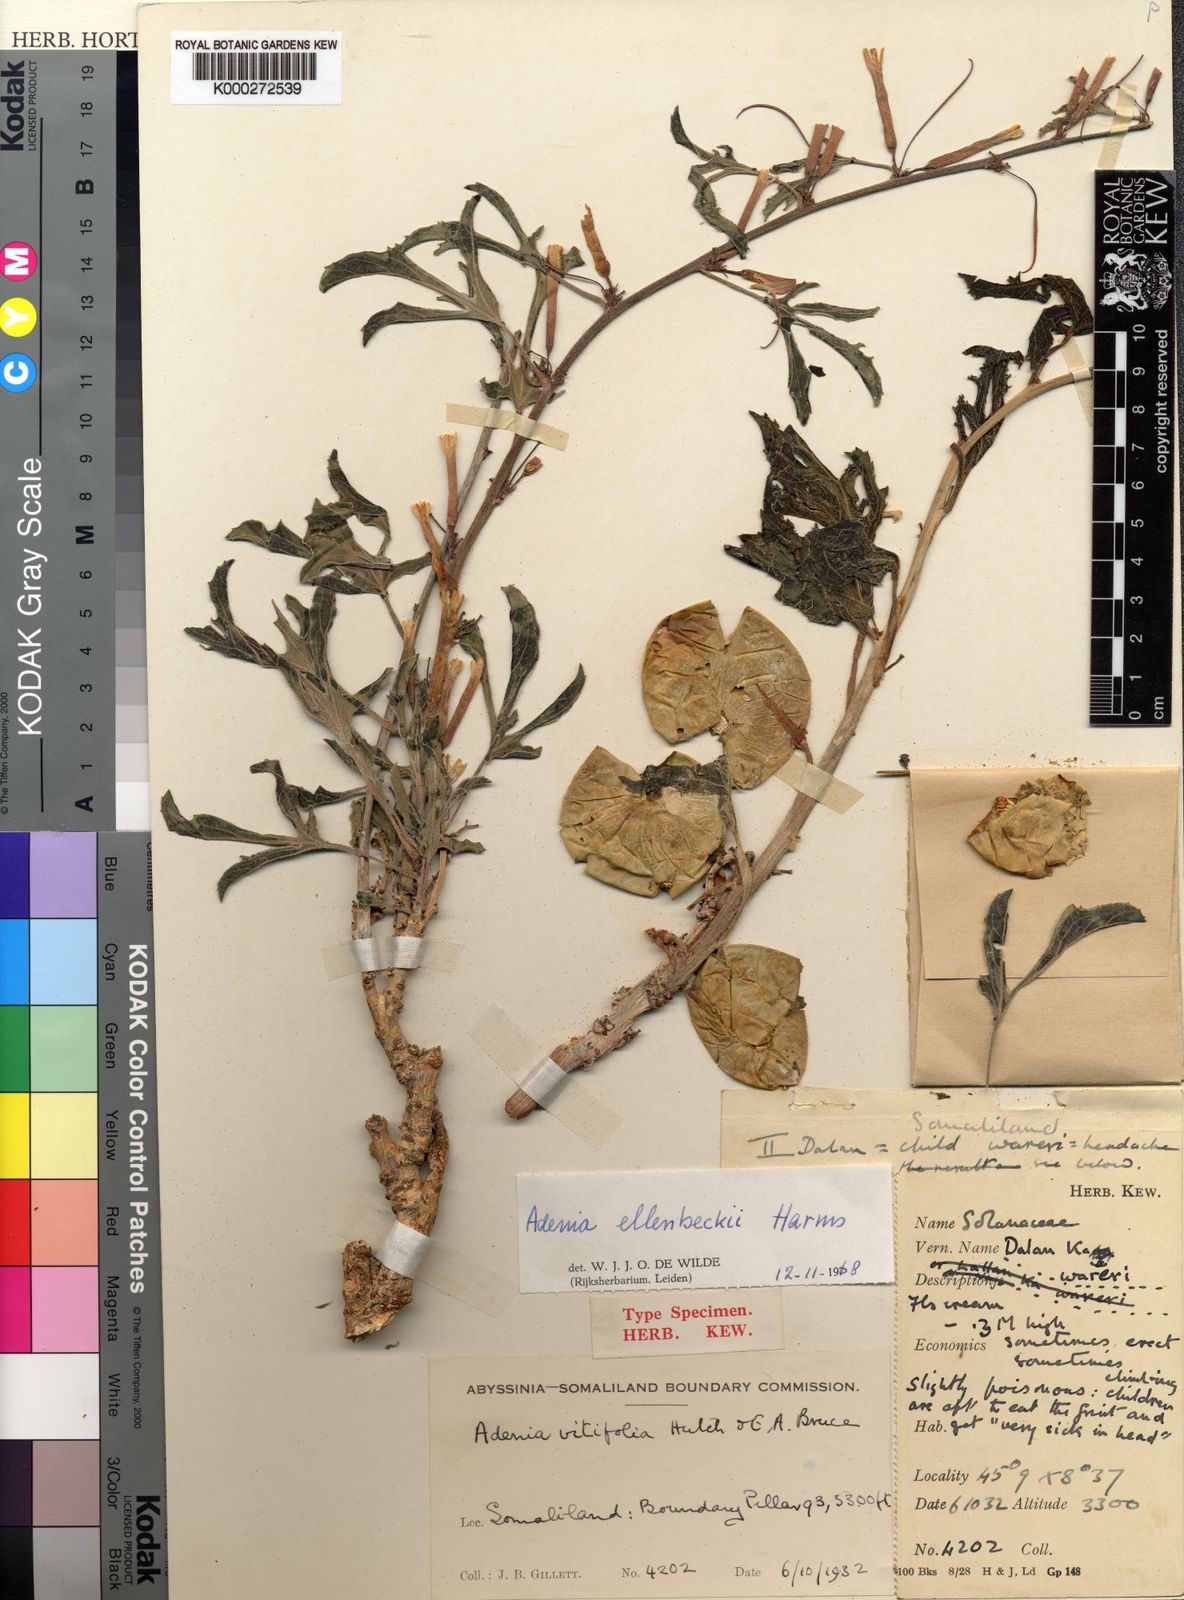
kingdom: Plantae
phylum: Tracheophyta
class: Magnoliopsida
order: Malpighiales
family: Passifloraceae
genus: Adenia
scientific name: Adenia
